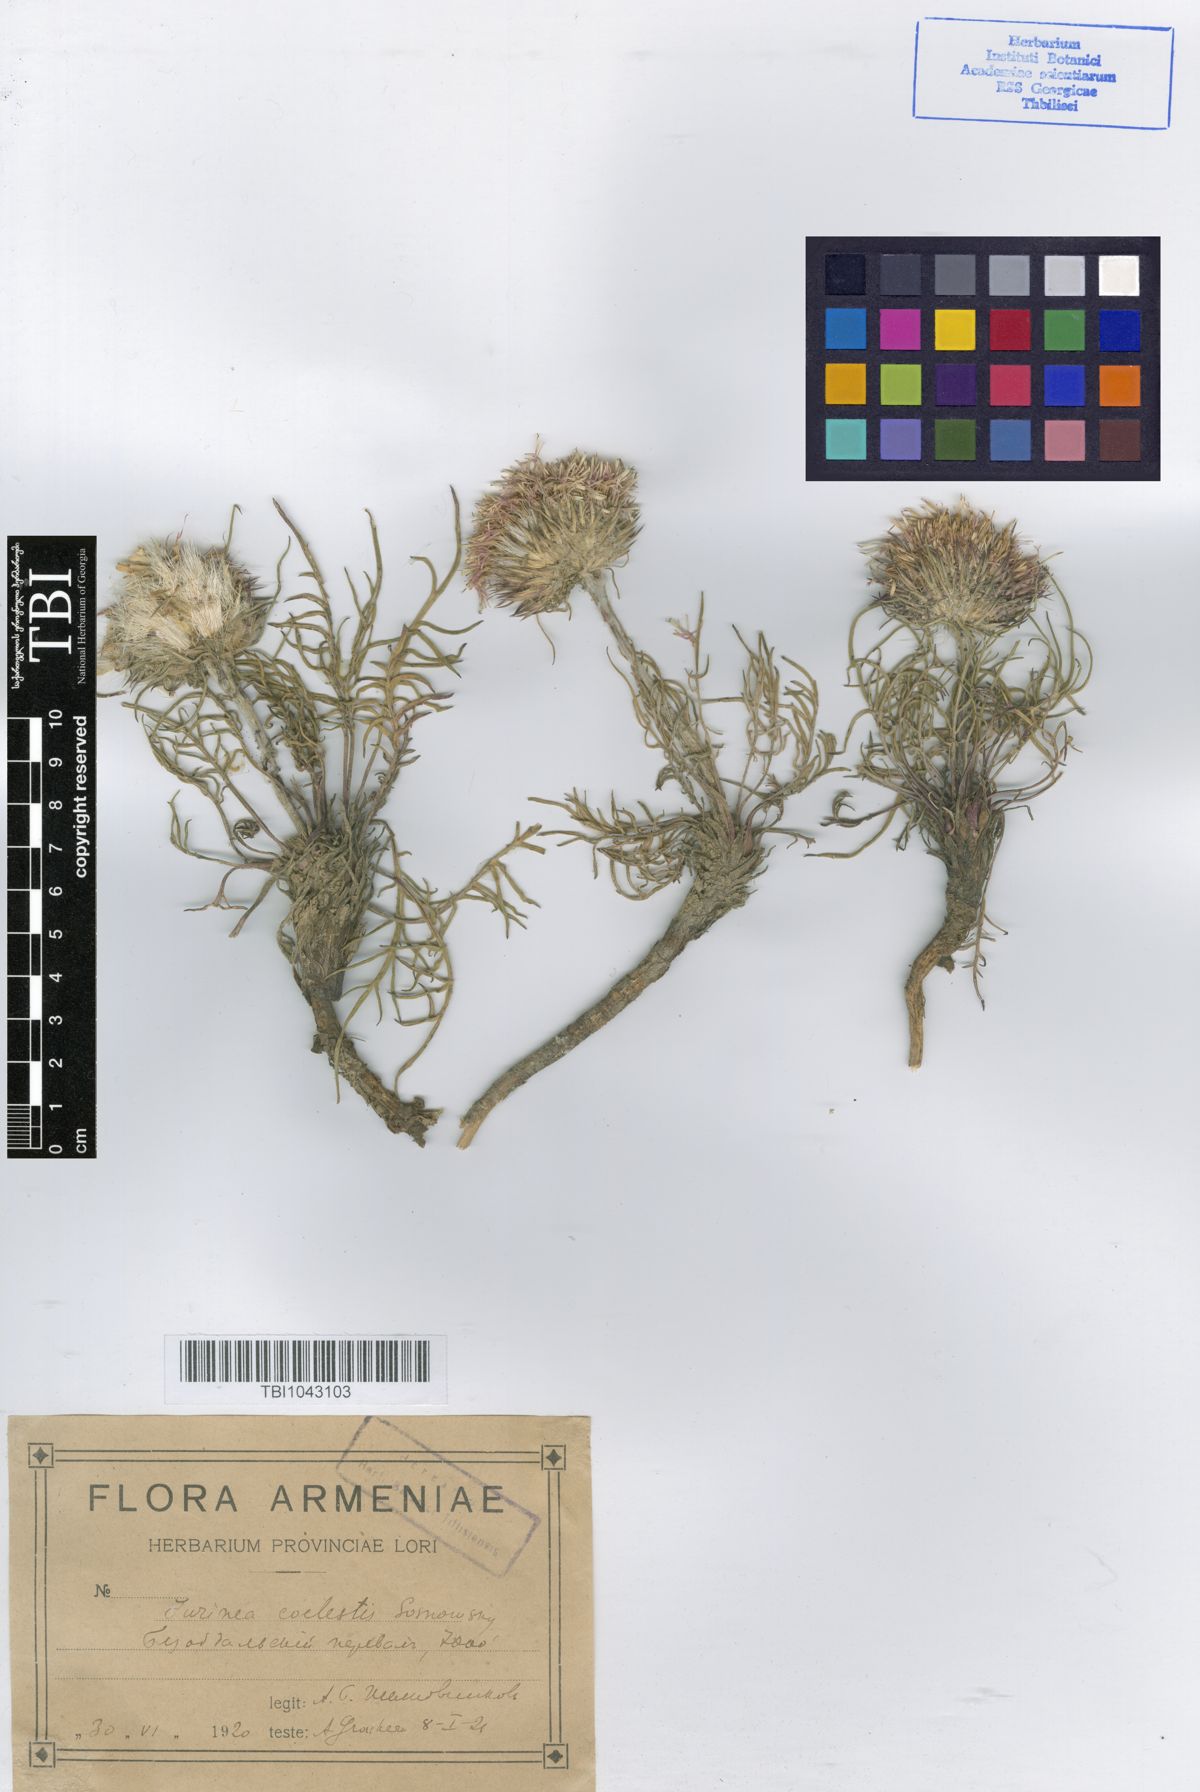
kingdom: Plantae
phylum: Tracheophyta
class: Magnoliopsida
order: Asterales
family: Asteraceae
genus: Jurinea
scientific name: Jurinea squarrosa
